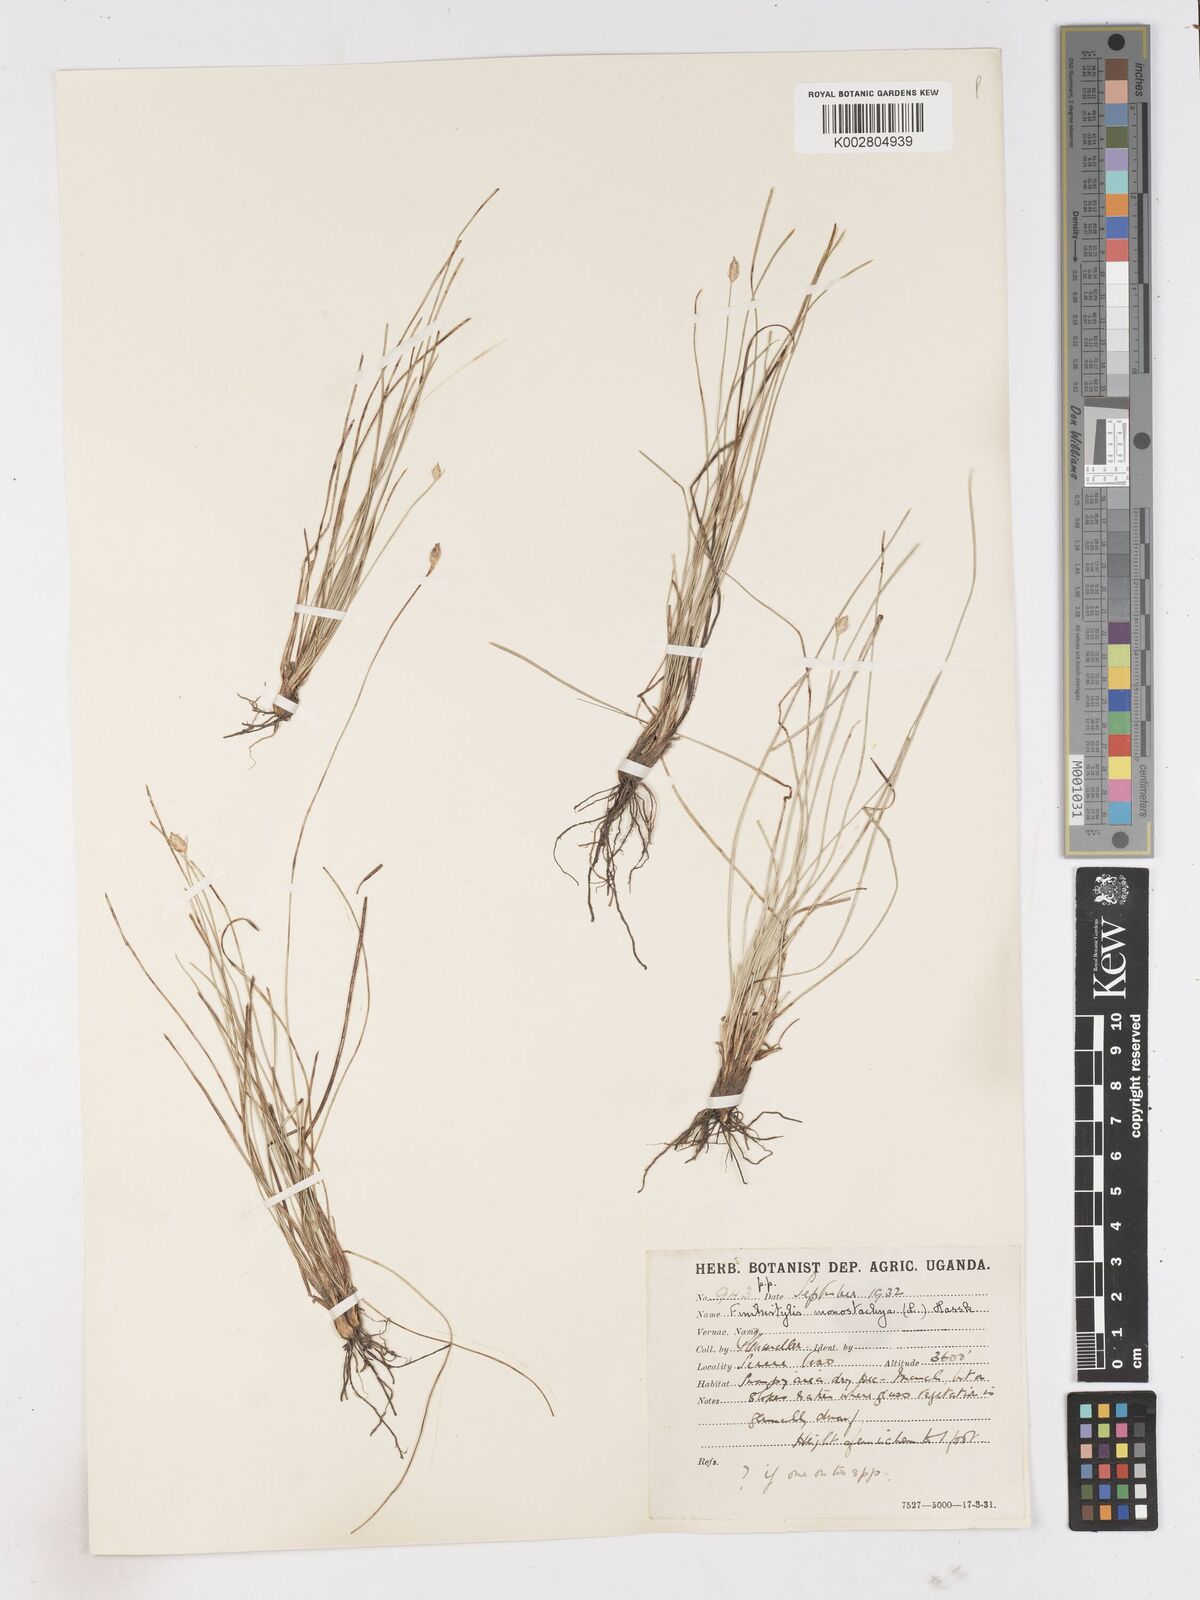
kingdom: Plantae
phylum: Tracheophyta
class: Liliopsida
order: Poales
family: Cyperaceae
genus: Abildgaardia
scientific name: Abildgaardia ovata
